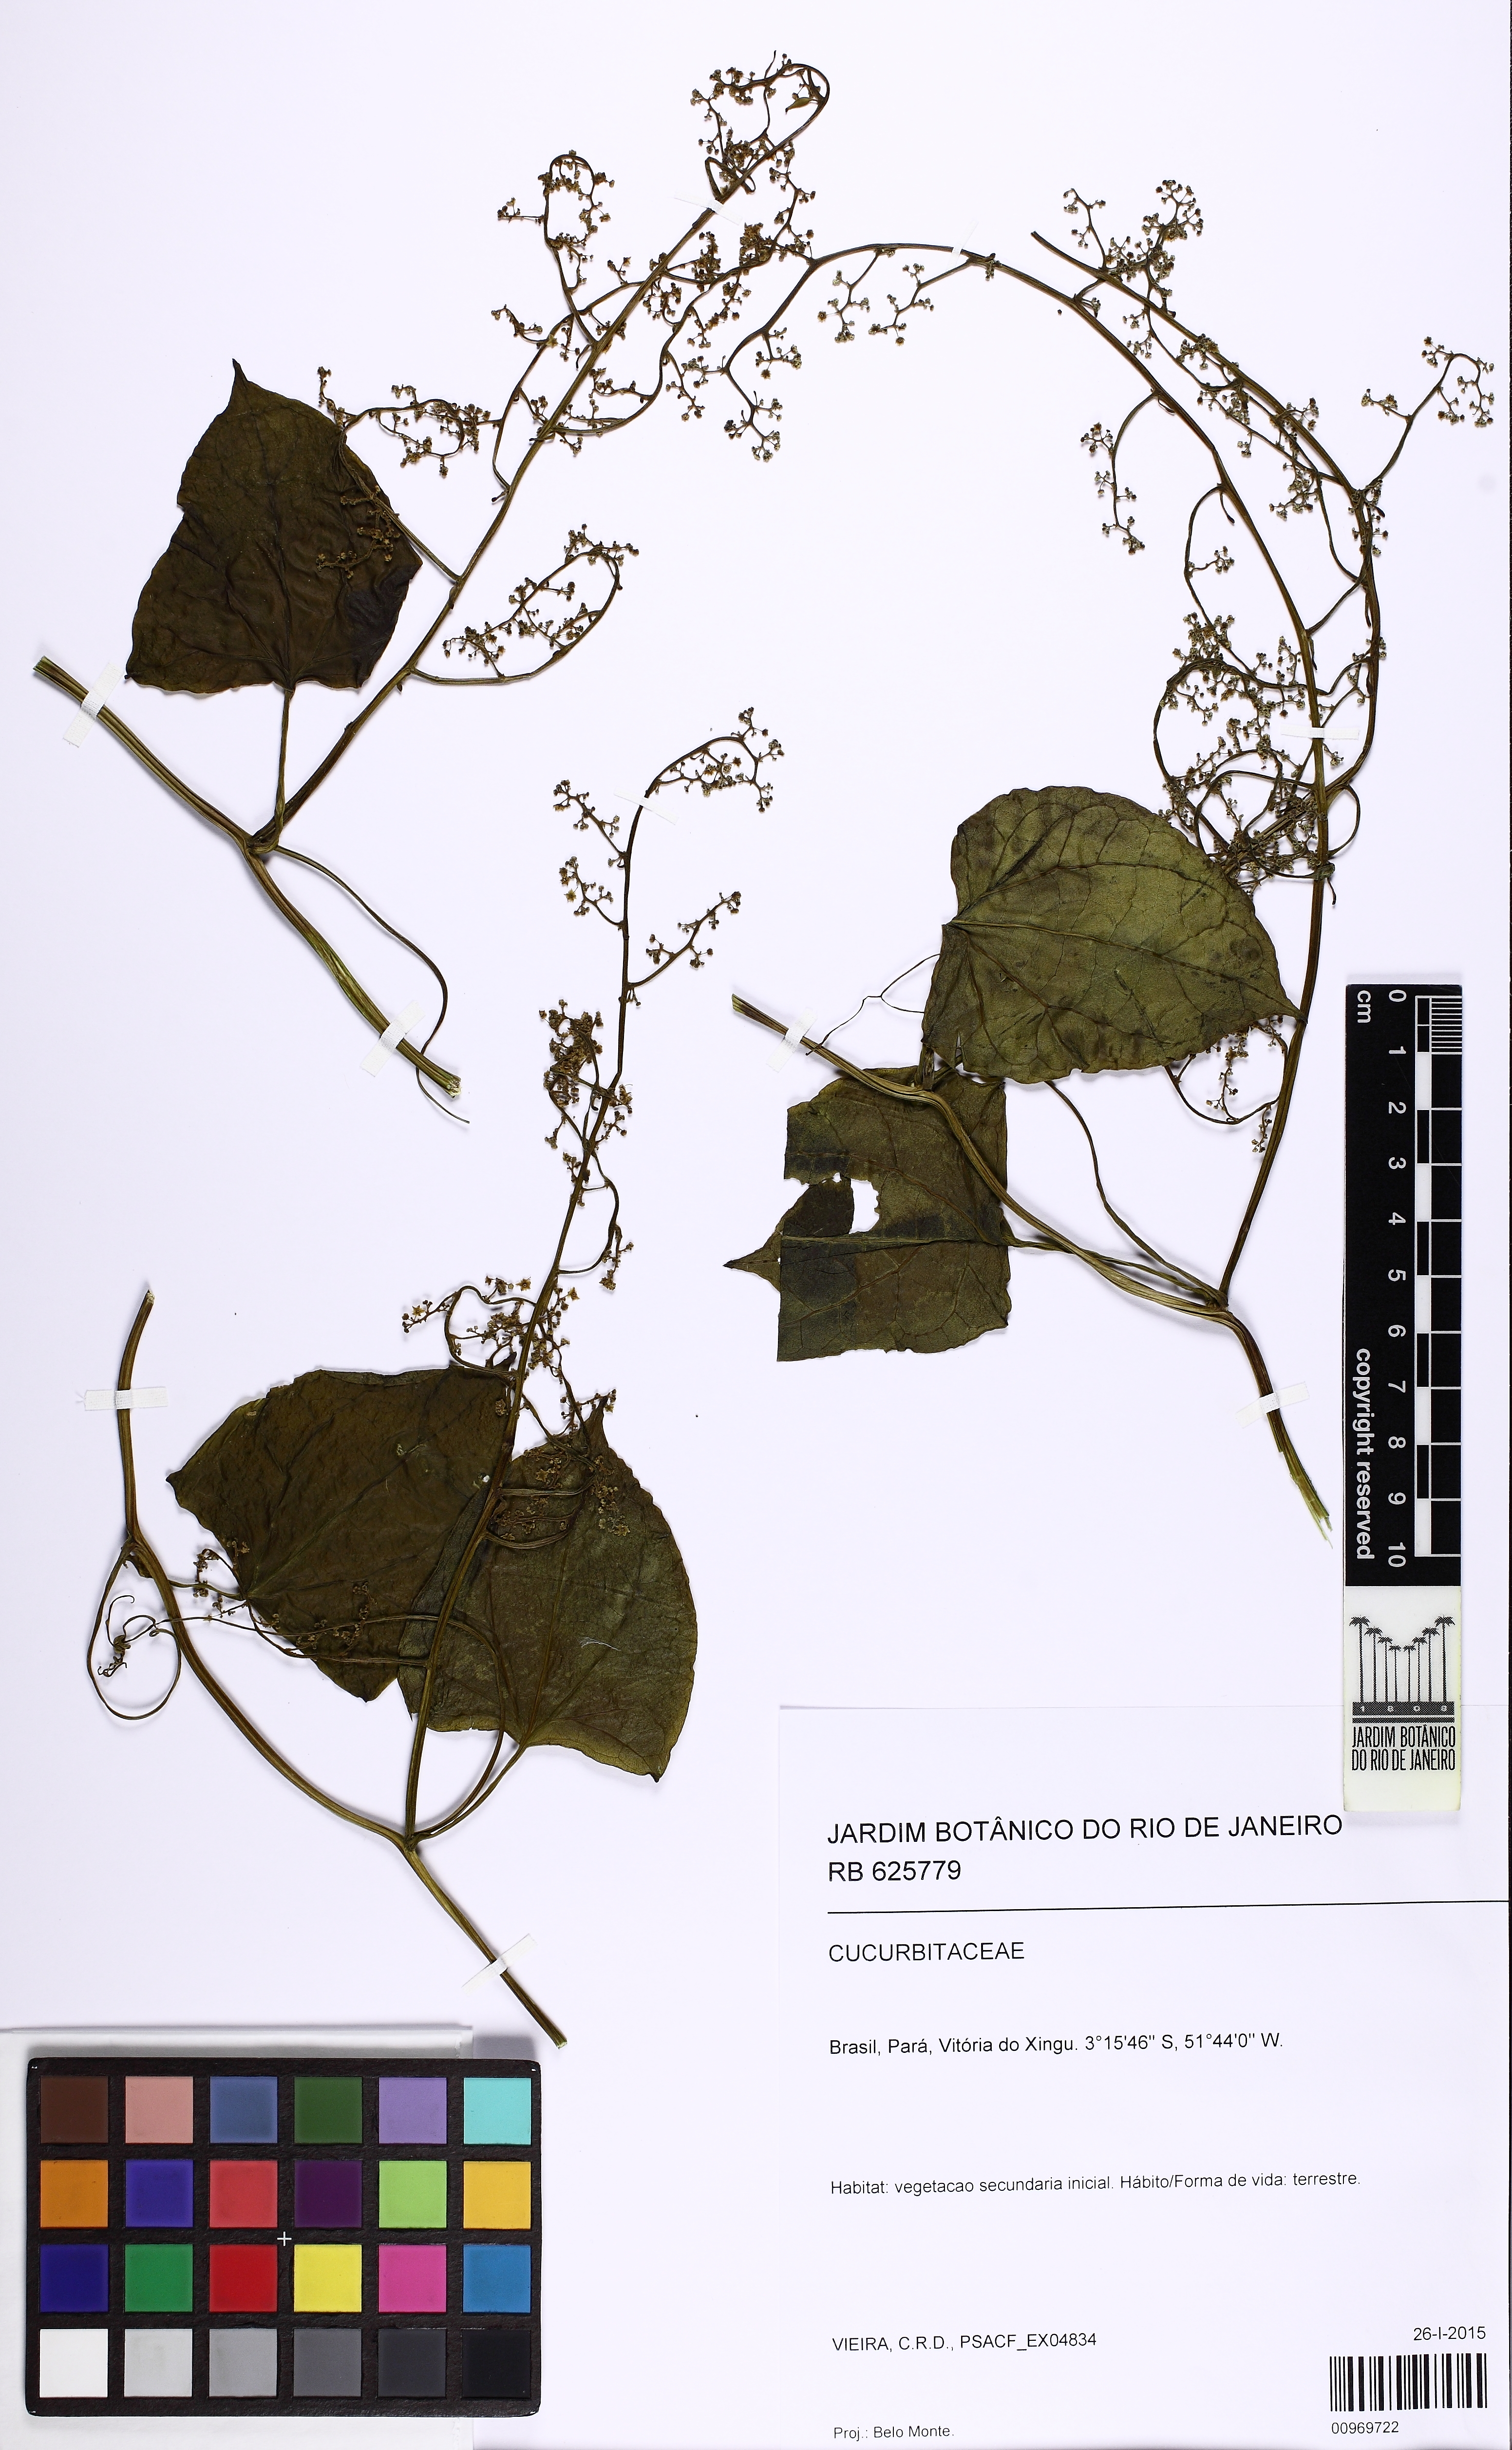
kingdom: Plantae
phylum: Tracheophyta
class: Magnoliopsida
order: Cucurbitales
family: Cucurbitaceae
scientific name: Cucurbitaceae
